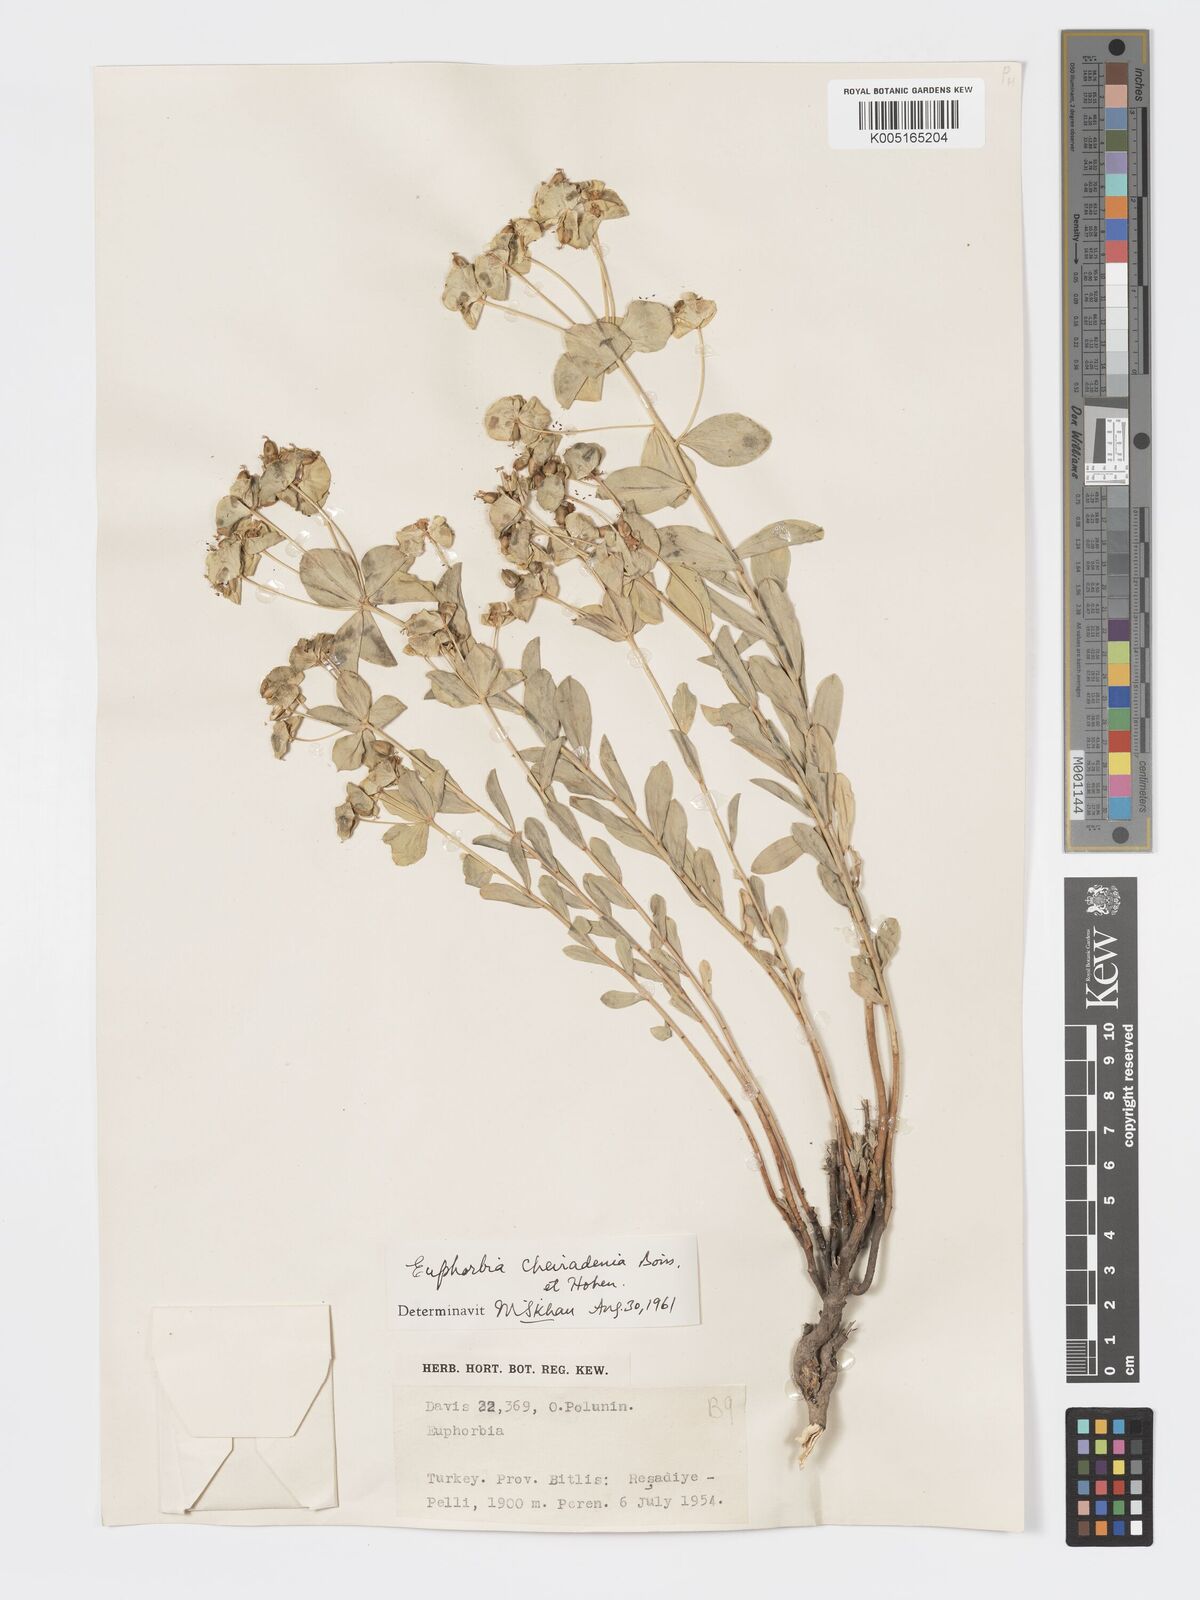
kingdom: Plantae
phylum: Tracheophyta
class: Magnoliopsida
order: Malpighiales
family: Euphorbiaceae
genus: Euphorbia
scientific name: Euphorbia cheiradenia
